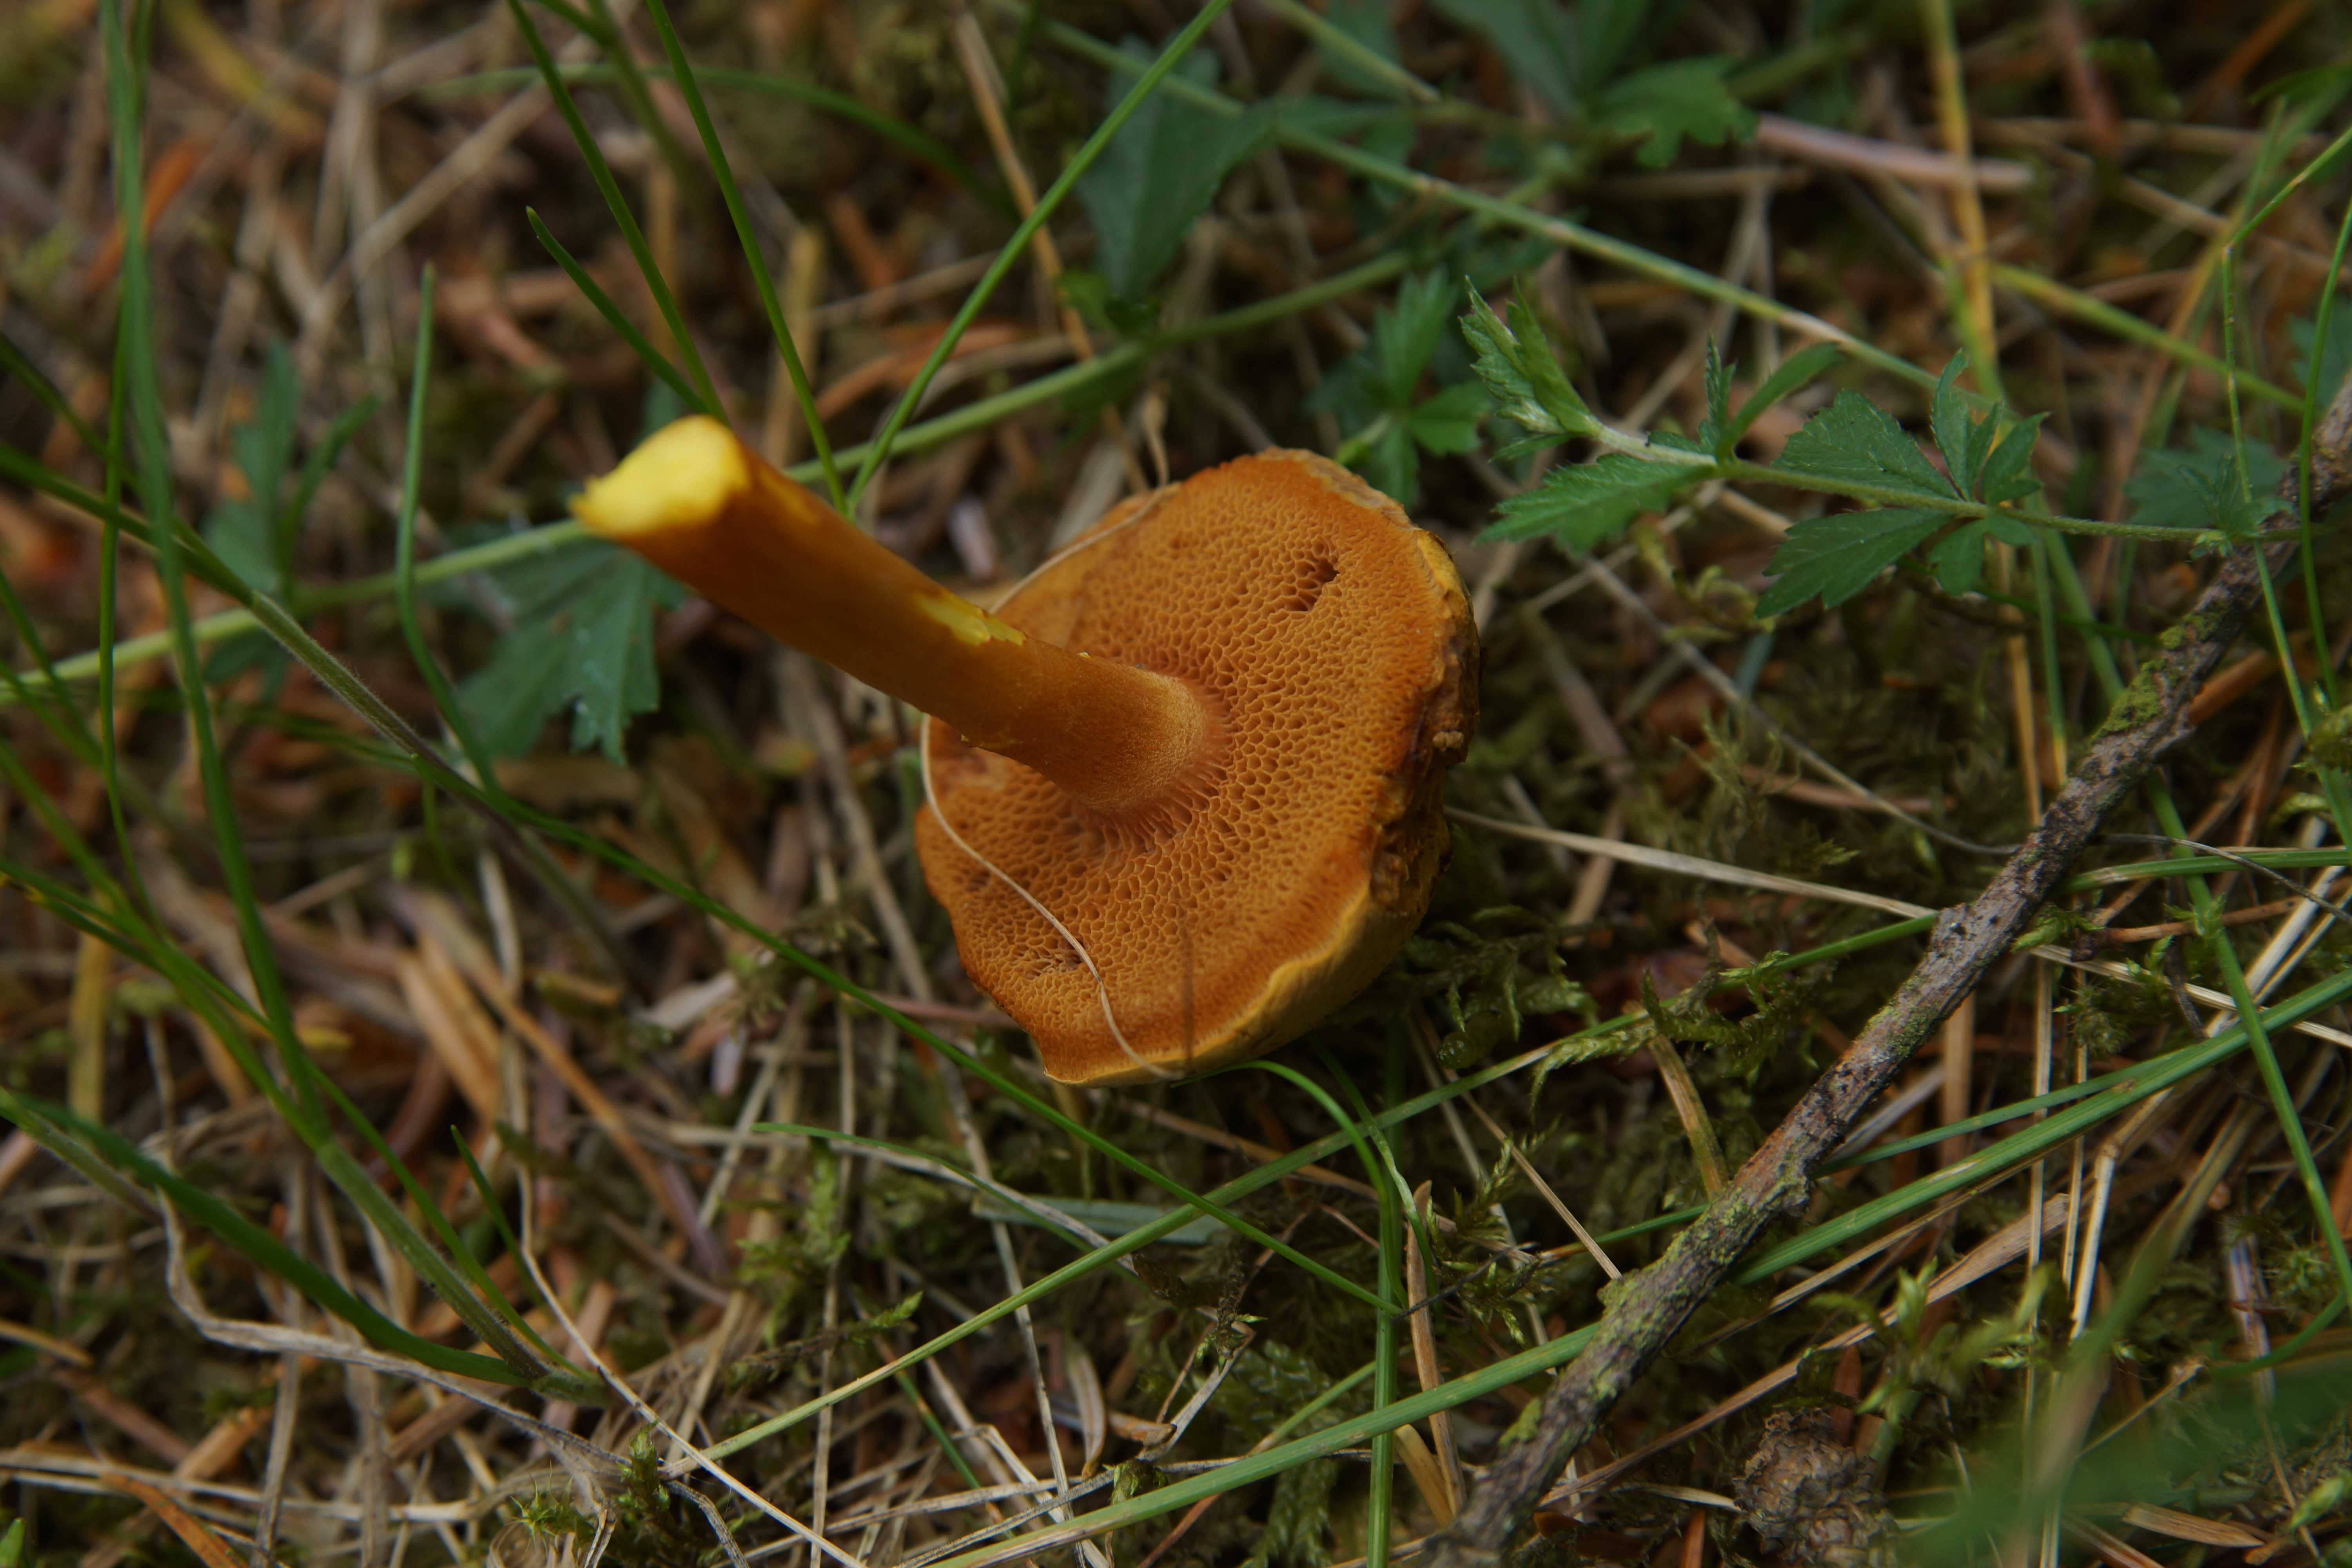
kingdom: Fungi
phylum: Basidiomycota
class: Agaricomycetes
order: Boletales
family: Boletaceae
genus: Chalciporus
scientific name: Chalciporus piperatus
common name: peberrørhat
